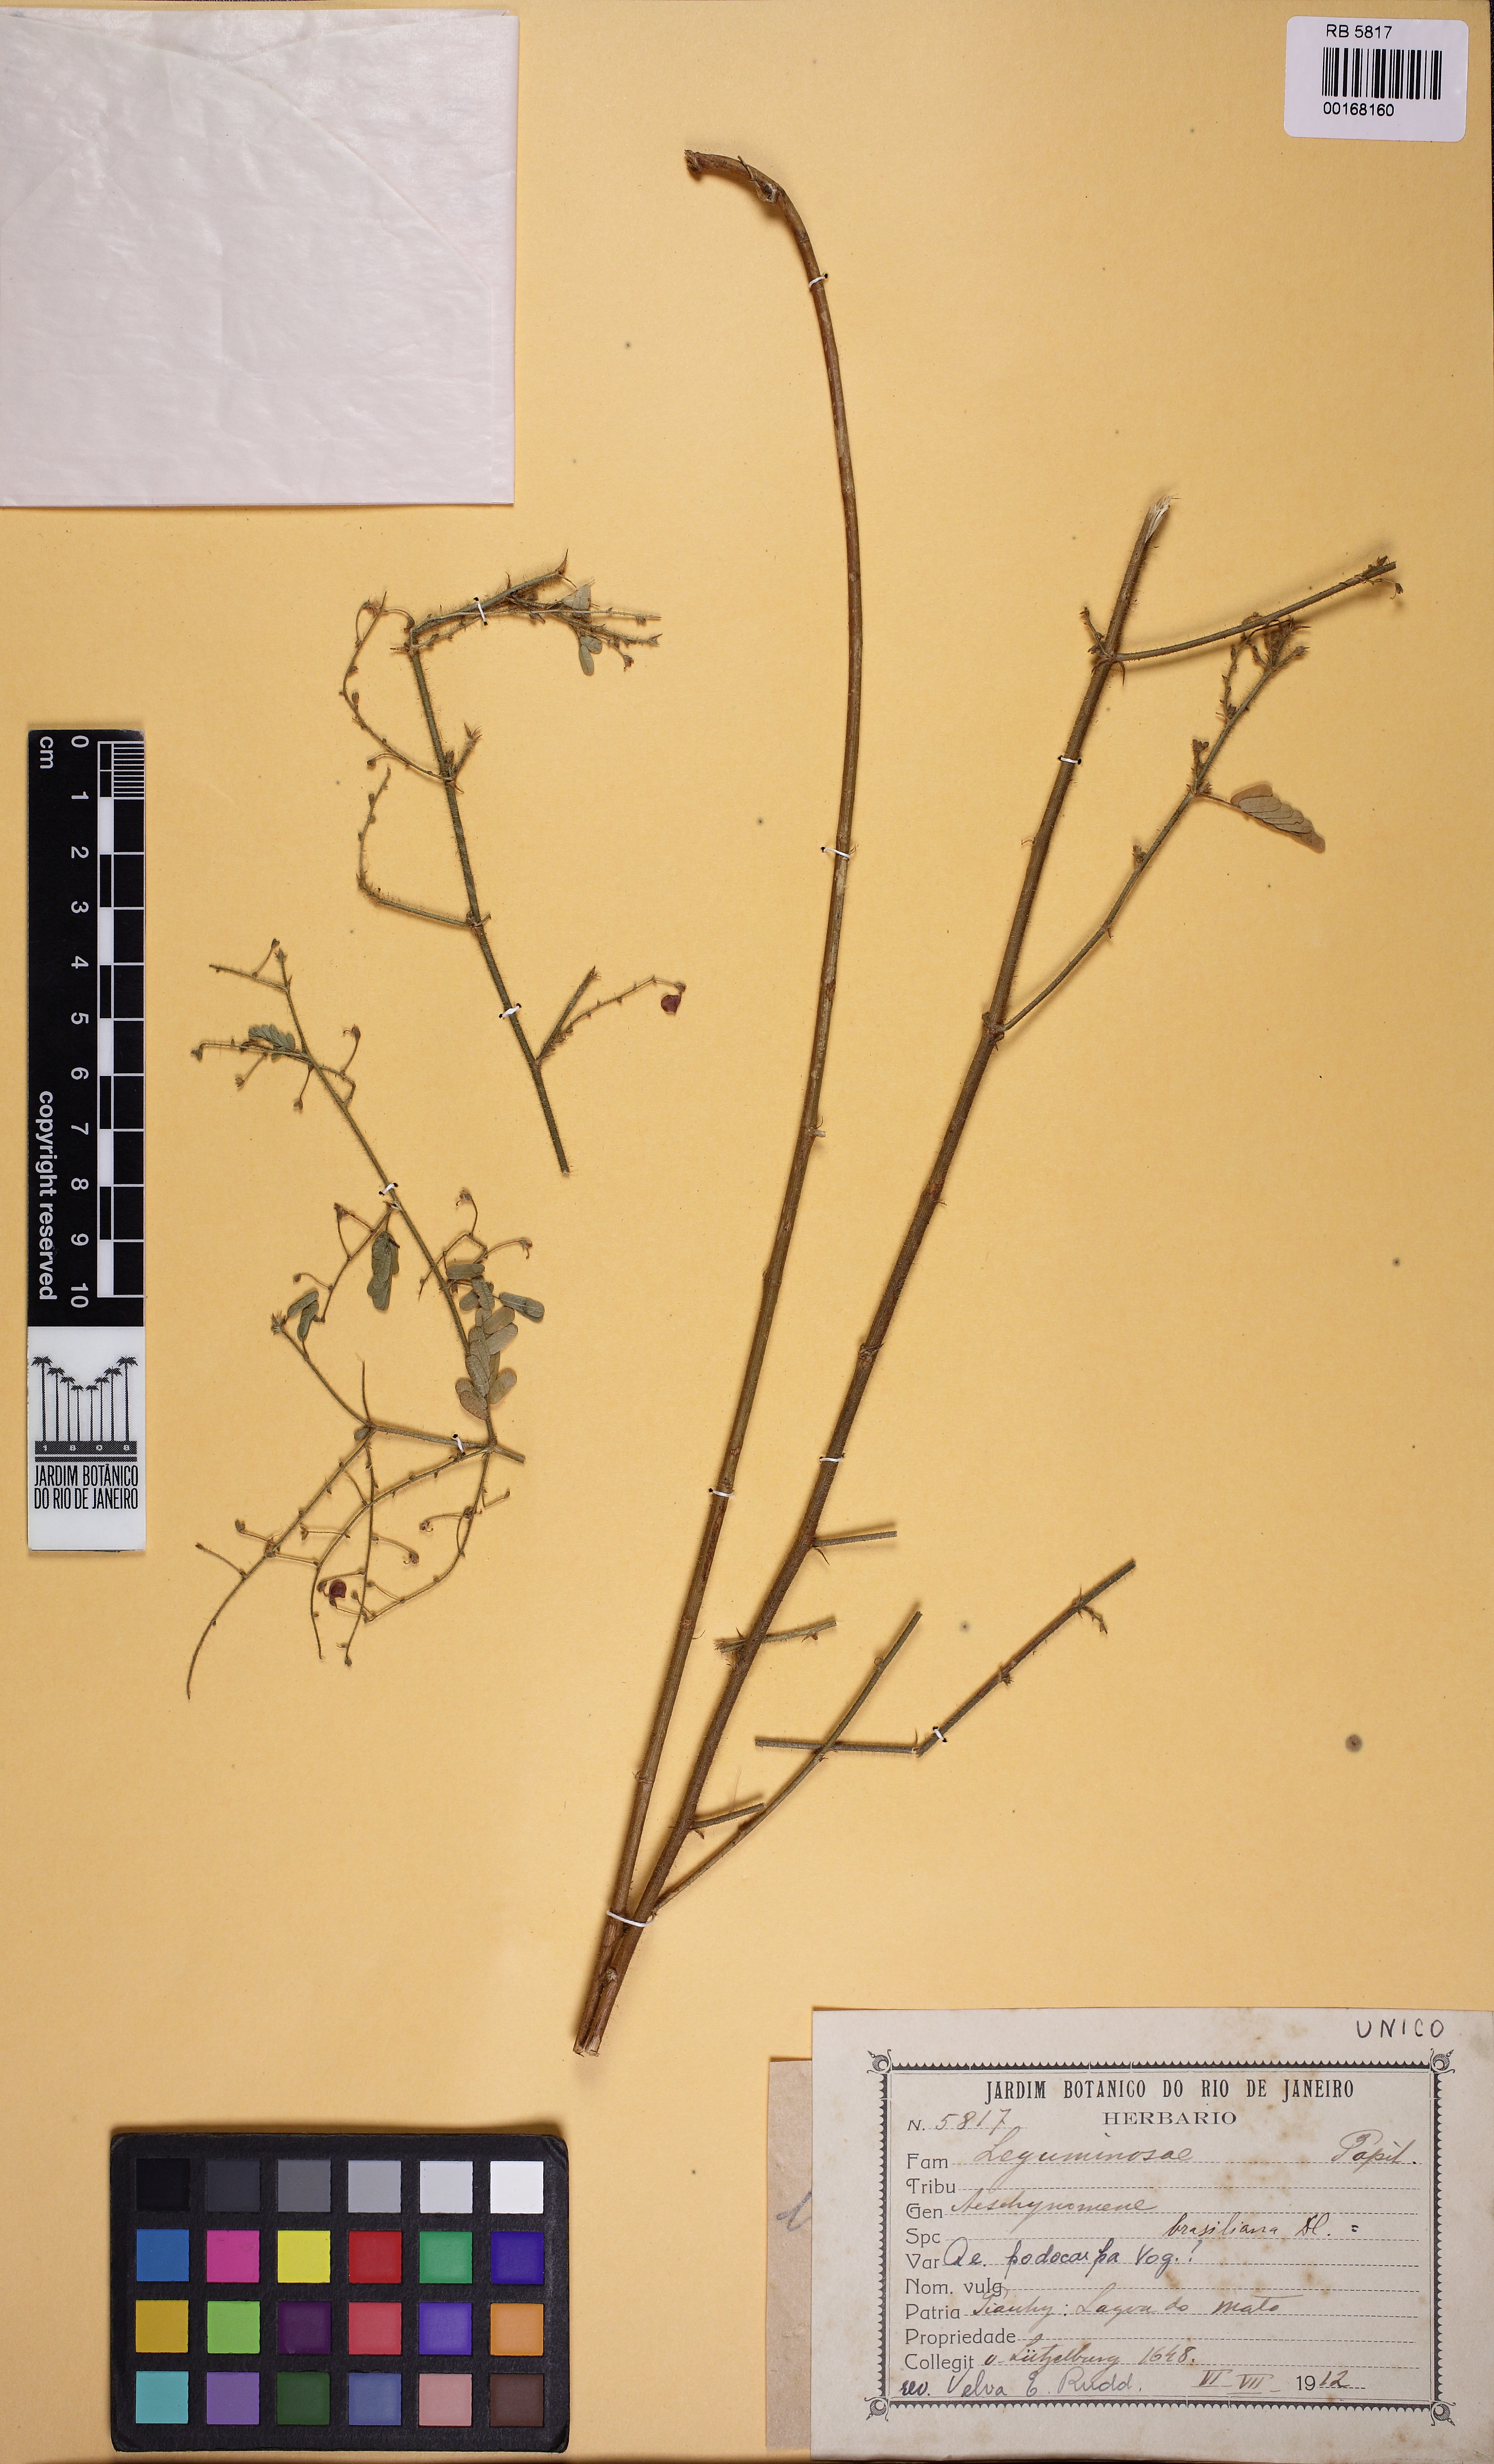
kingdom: Plantae
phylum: Tracheophyta
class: Magnoliopsida
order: Fabales
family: Fabaceae
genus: Ctenodon
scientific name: Ctenodon brasilianus
